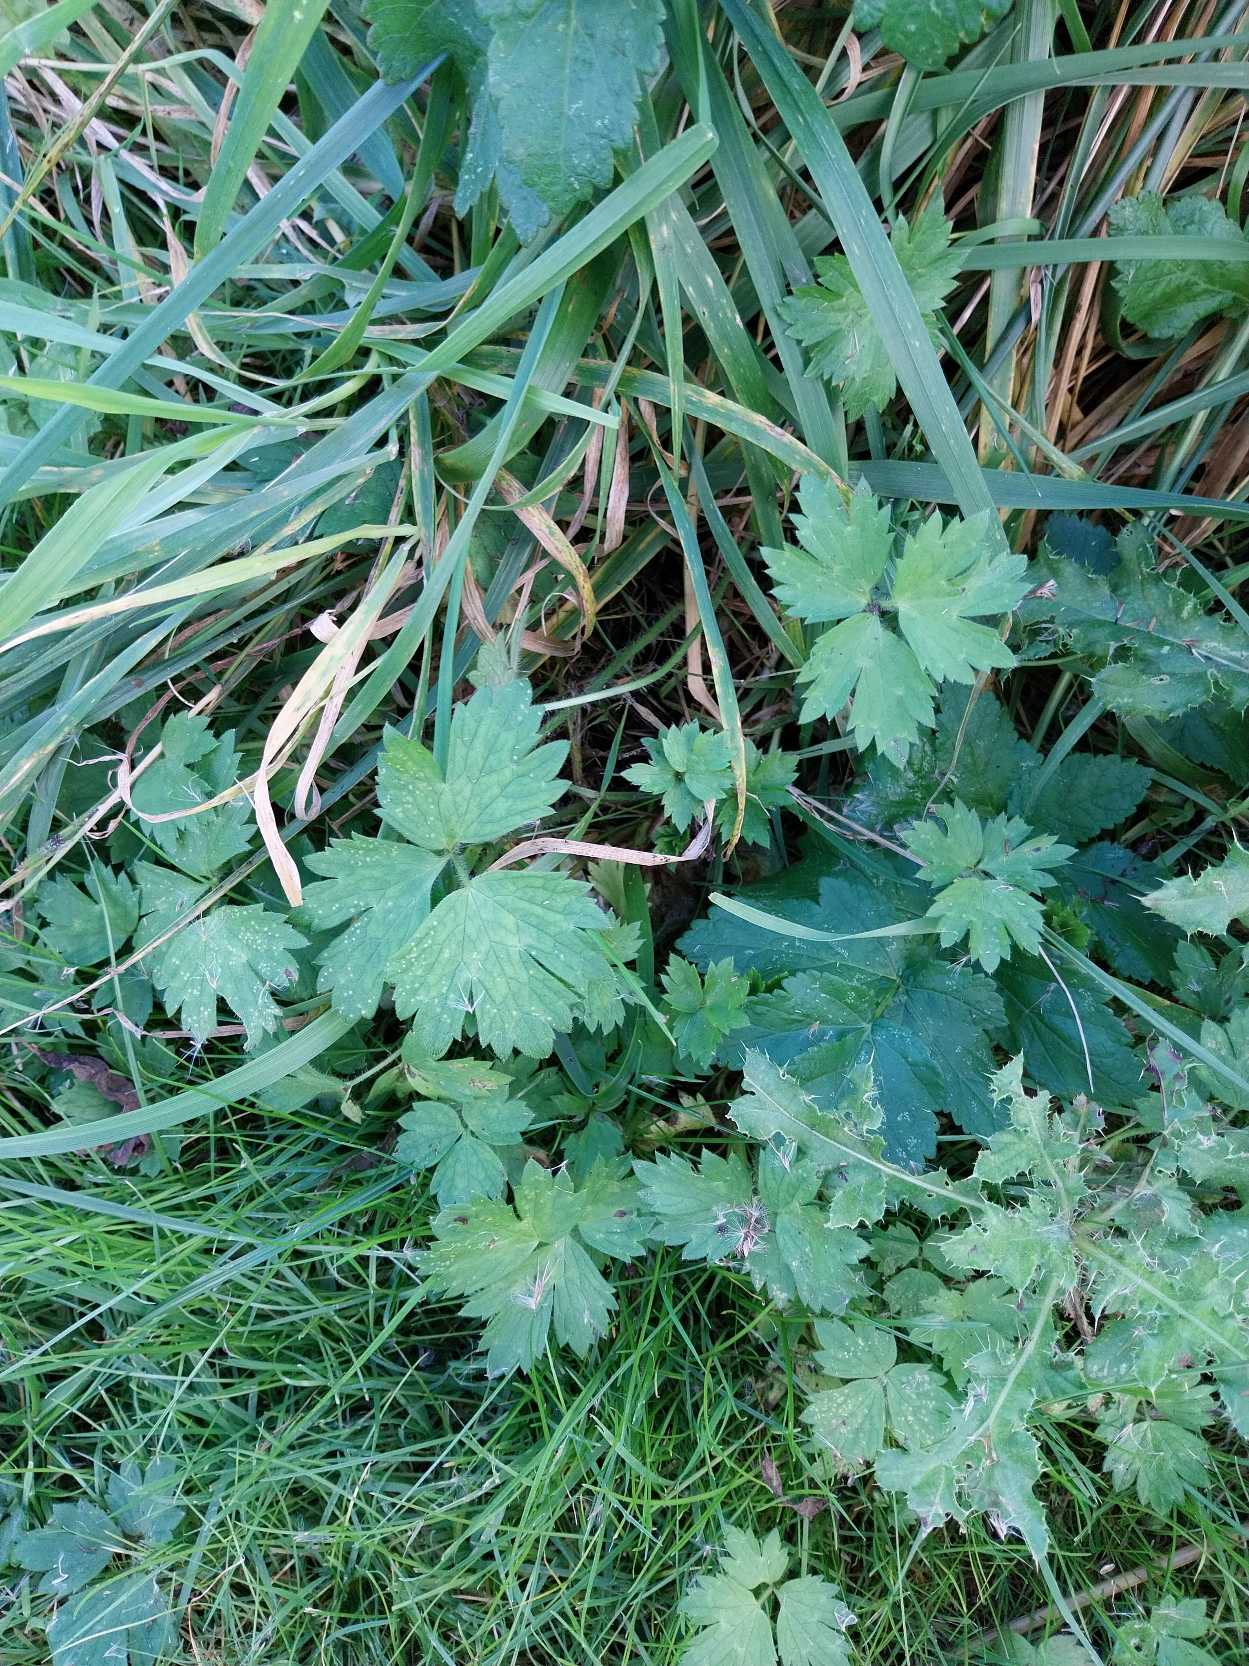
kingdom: Plantae
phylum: Tracheophyta
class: Magnoliopsida
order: Ranunculales
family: Ranunculaceae
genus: Ranunculus
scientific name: Ranunculus repens
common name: Lav ranunkel
